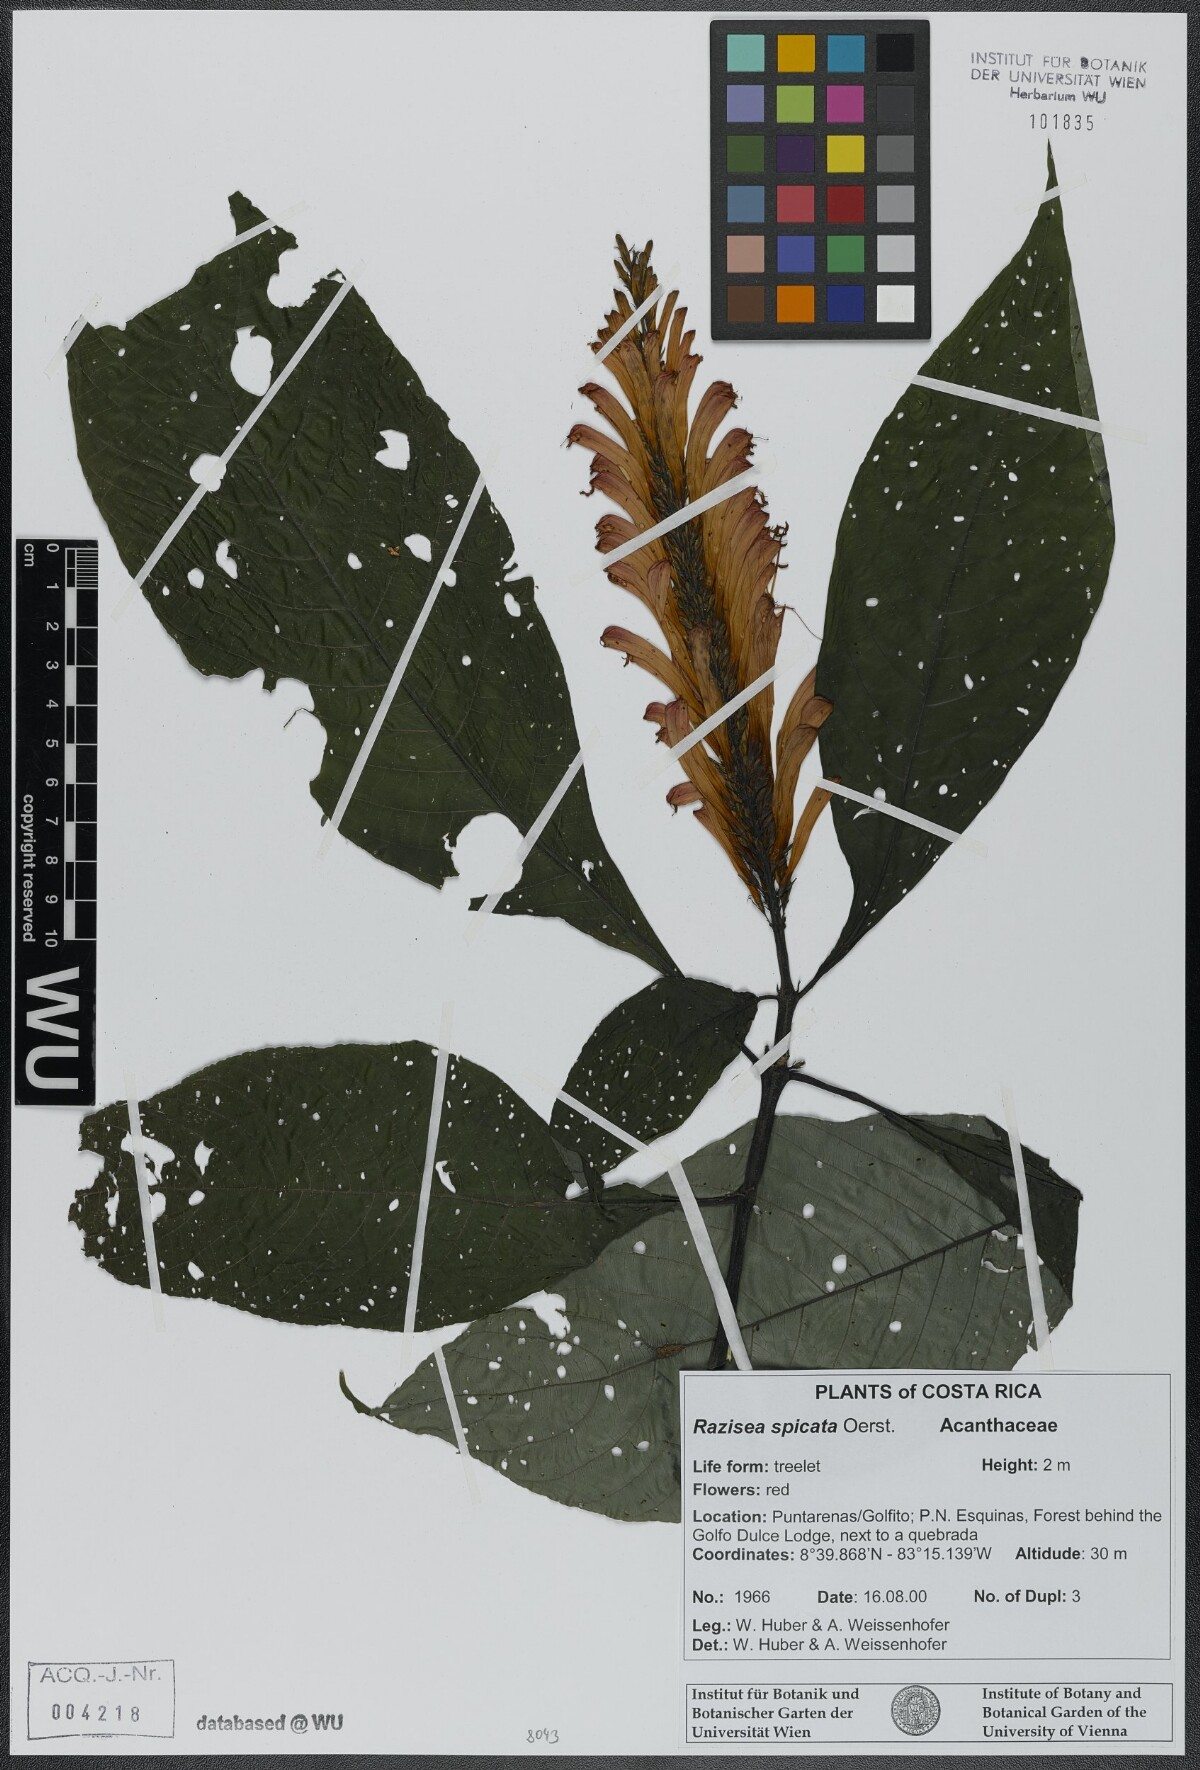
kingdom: Plantae
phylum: Tracheophyta
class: Magnoliopsida
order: Lamiales
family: Acanthaceae
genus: Stenostephanus
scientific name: Stenostephanus leiorhachis
